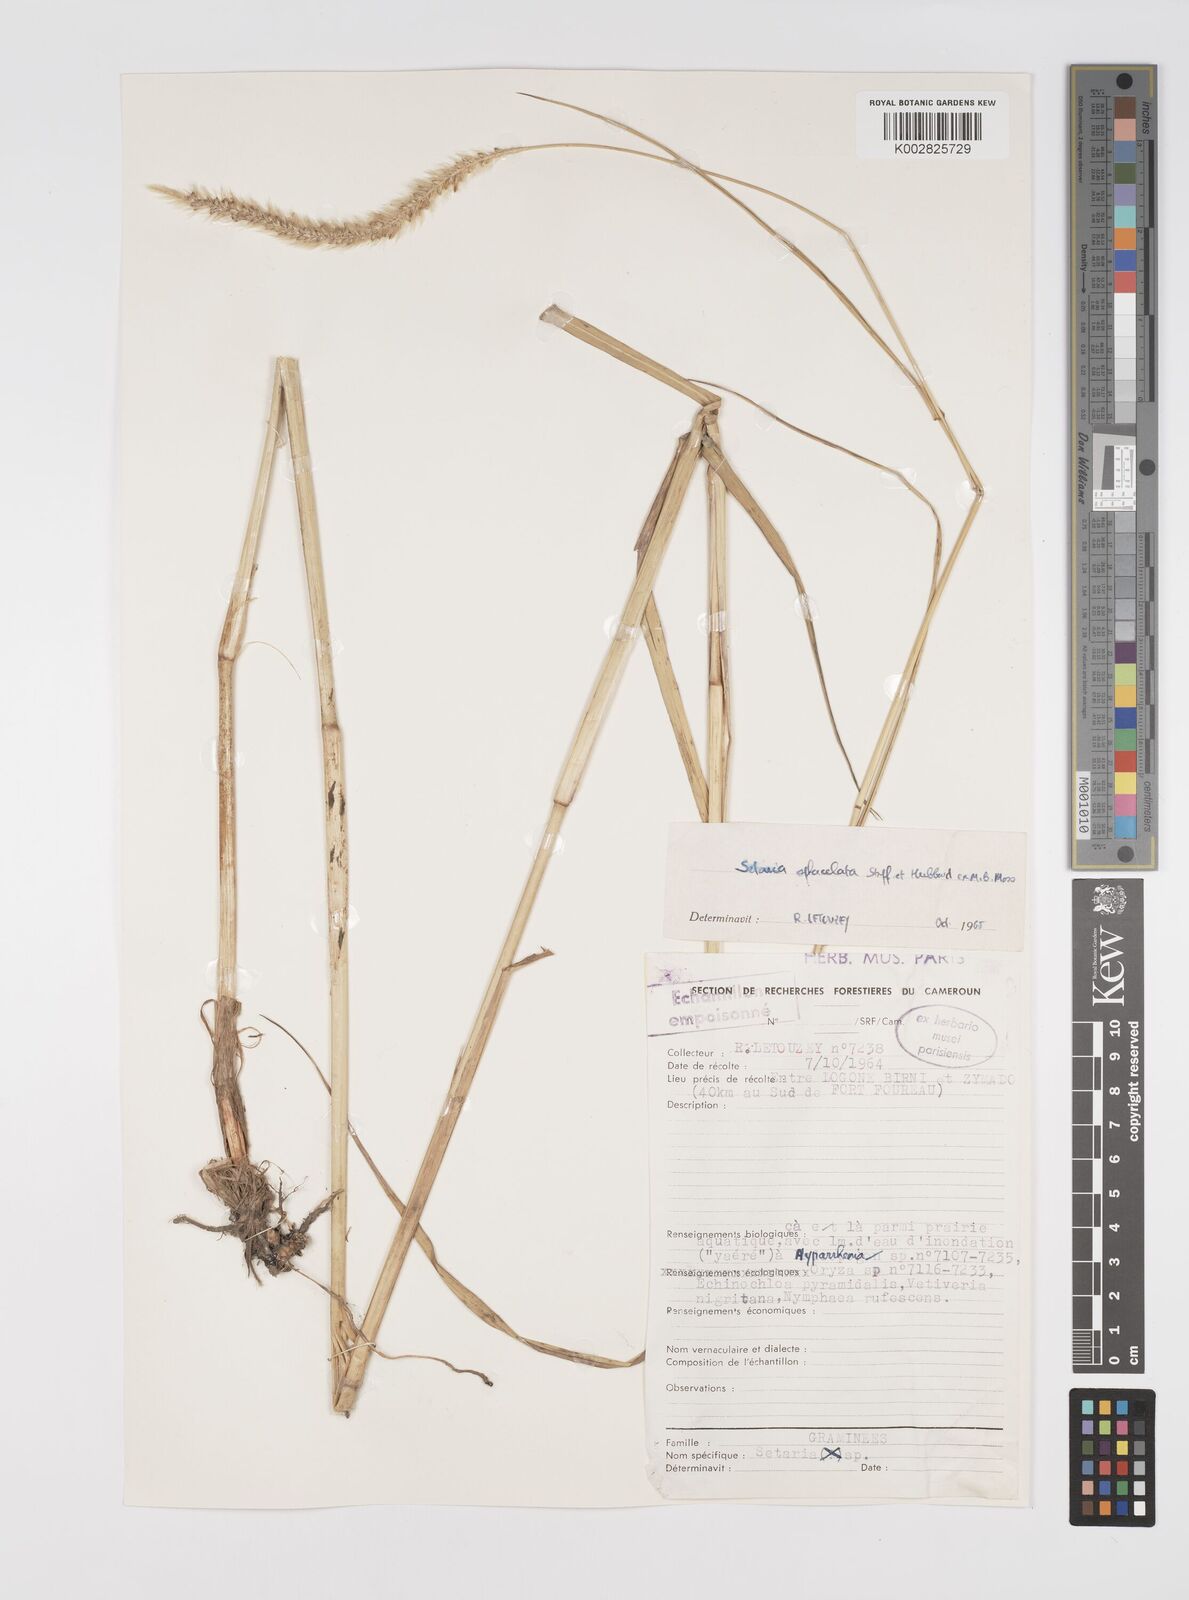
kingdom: Plantae
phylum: Tracheophyta
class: Liliopsida
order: Poales
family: Poaceae
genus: Setaria
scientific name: Setaria sphacelata
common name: African bristlegrass
